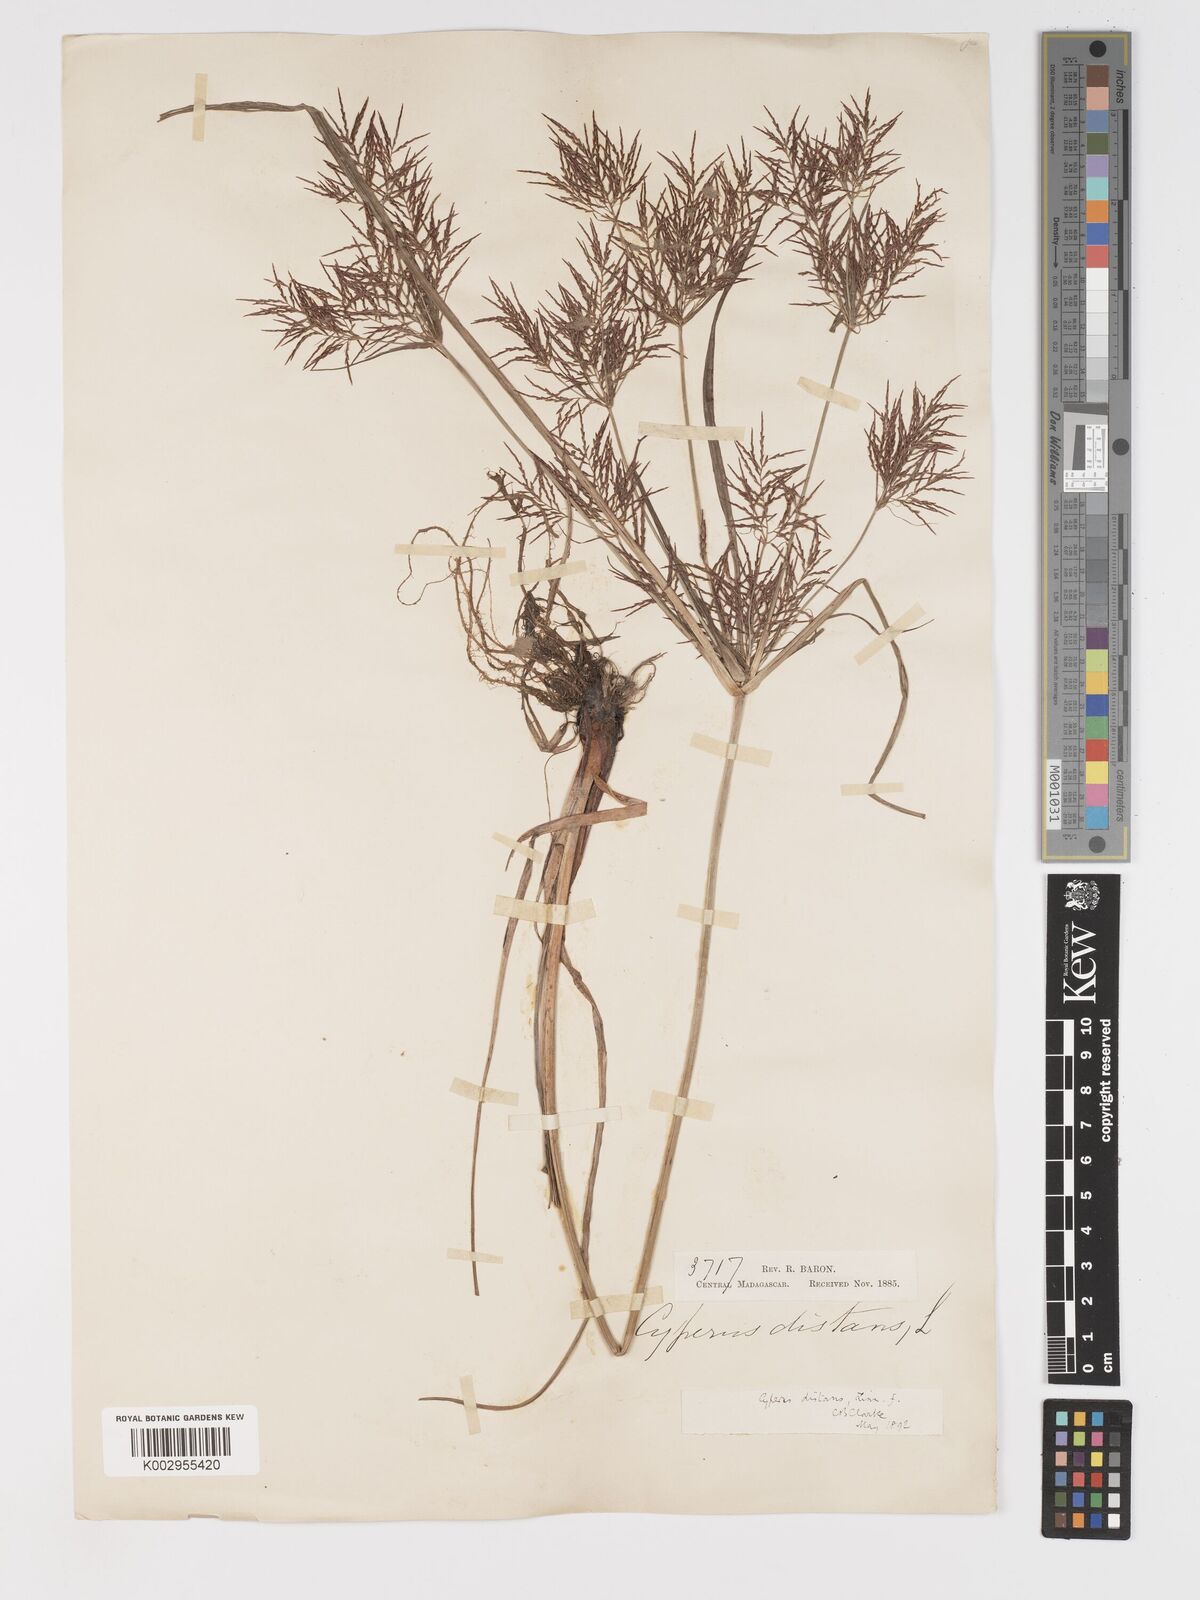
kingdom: Plantae
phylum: Tracheophyta
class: Liliopsida
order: Poales
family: Cyperaceae
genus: Cyperus
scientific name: Cyperus distans
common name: Slender cyperus
